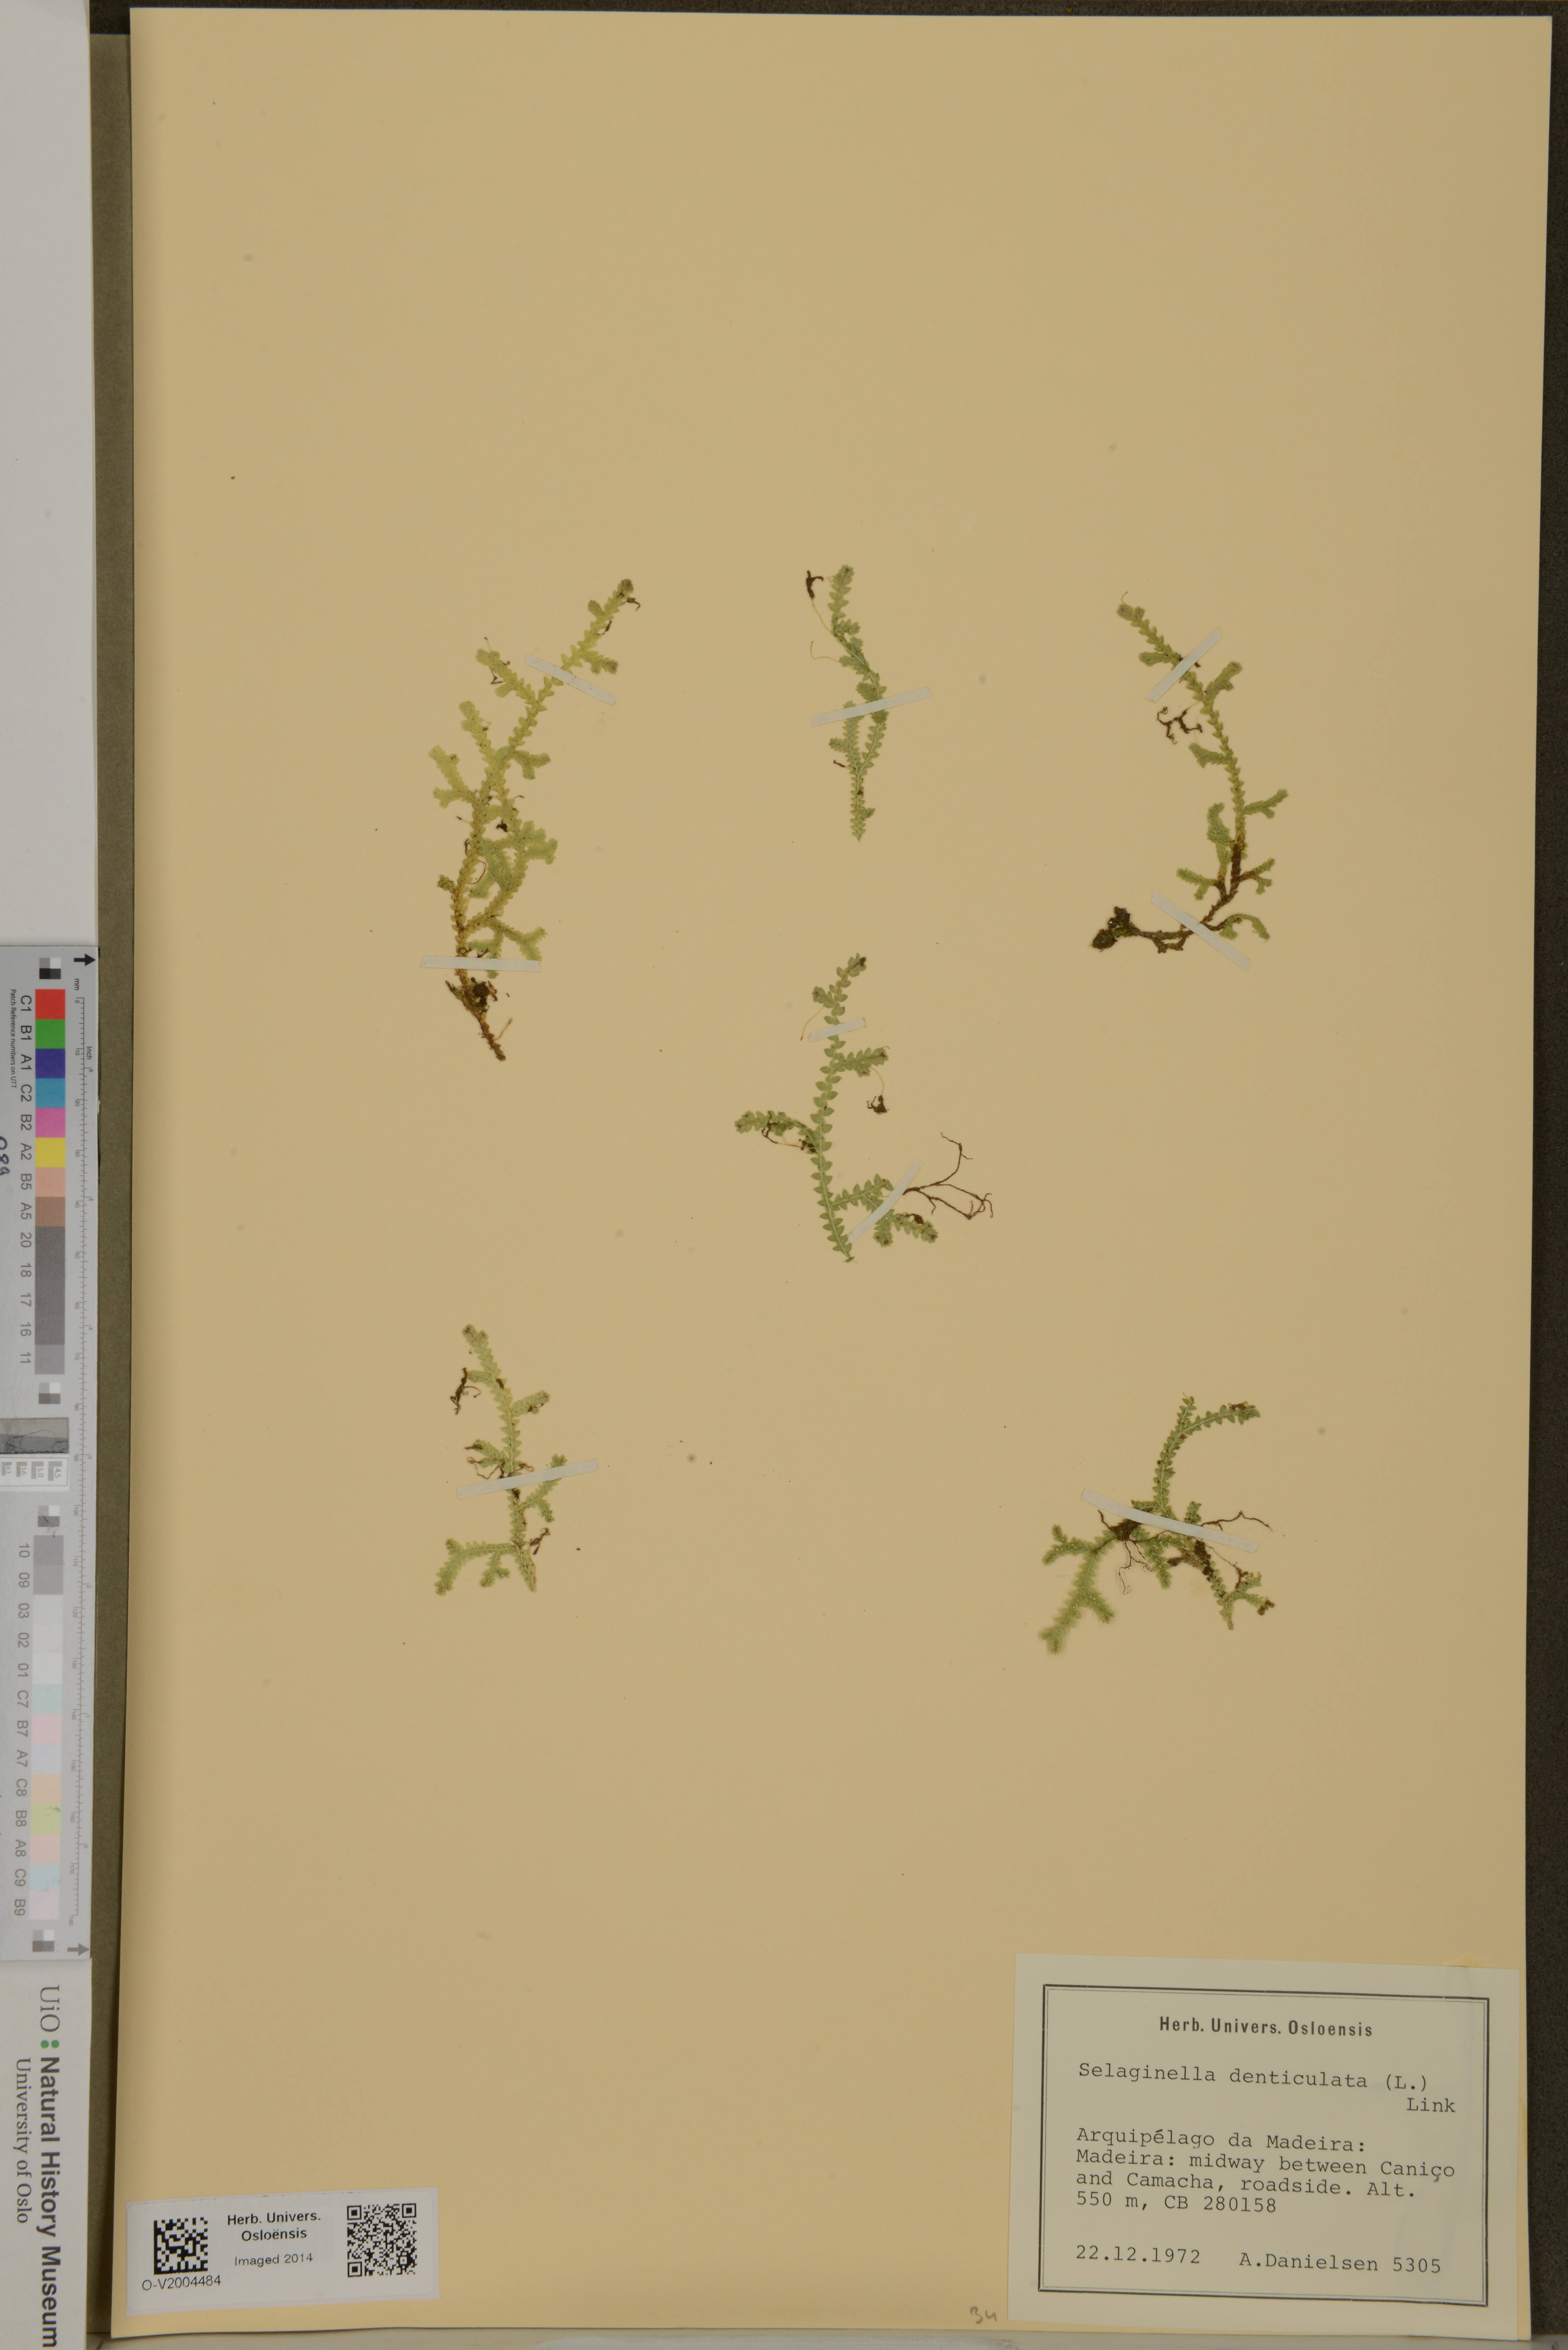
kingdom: Plantae
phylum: Tracheophyta
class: Lycopodiopsida
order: Selaginellales
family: Selaginellaceae
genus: Selaginella
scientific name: Selaginella denticulata
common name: Toothed-leaved clubmoss
